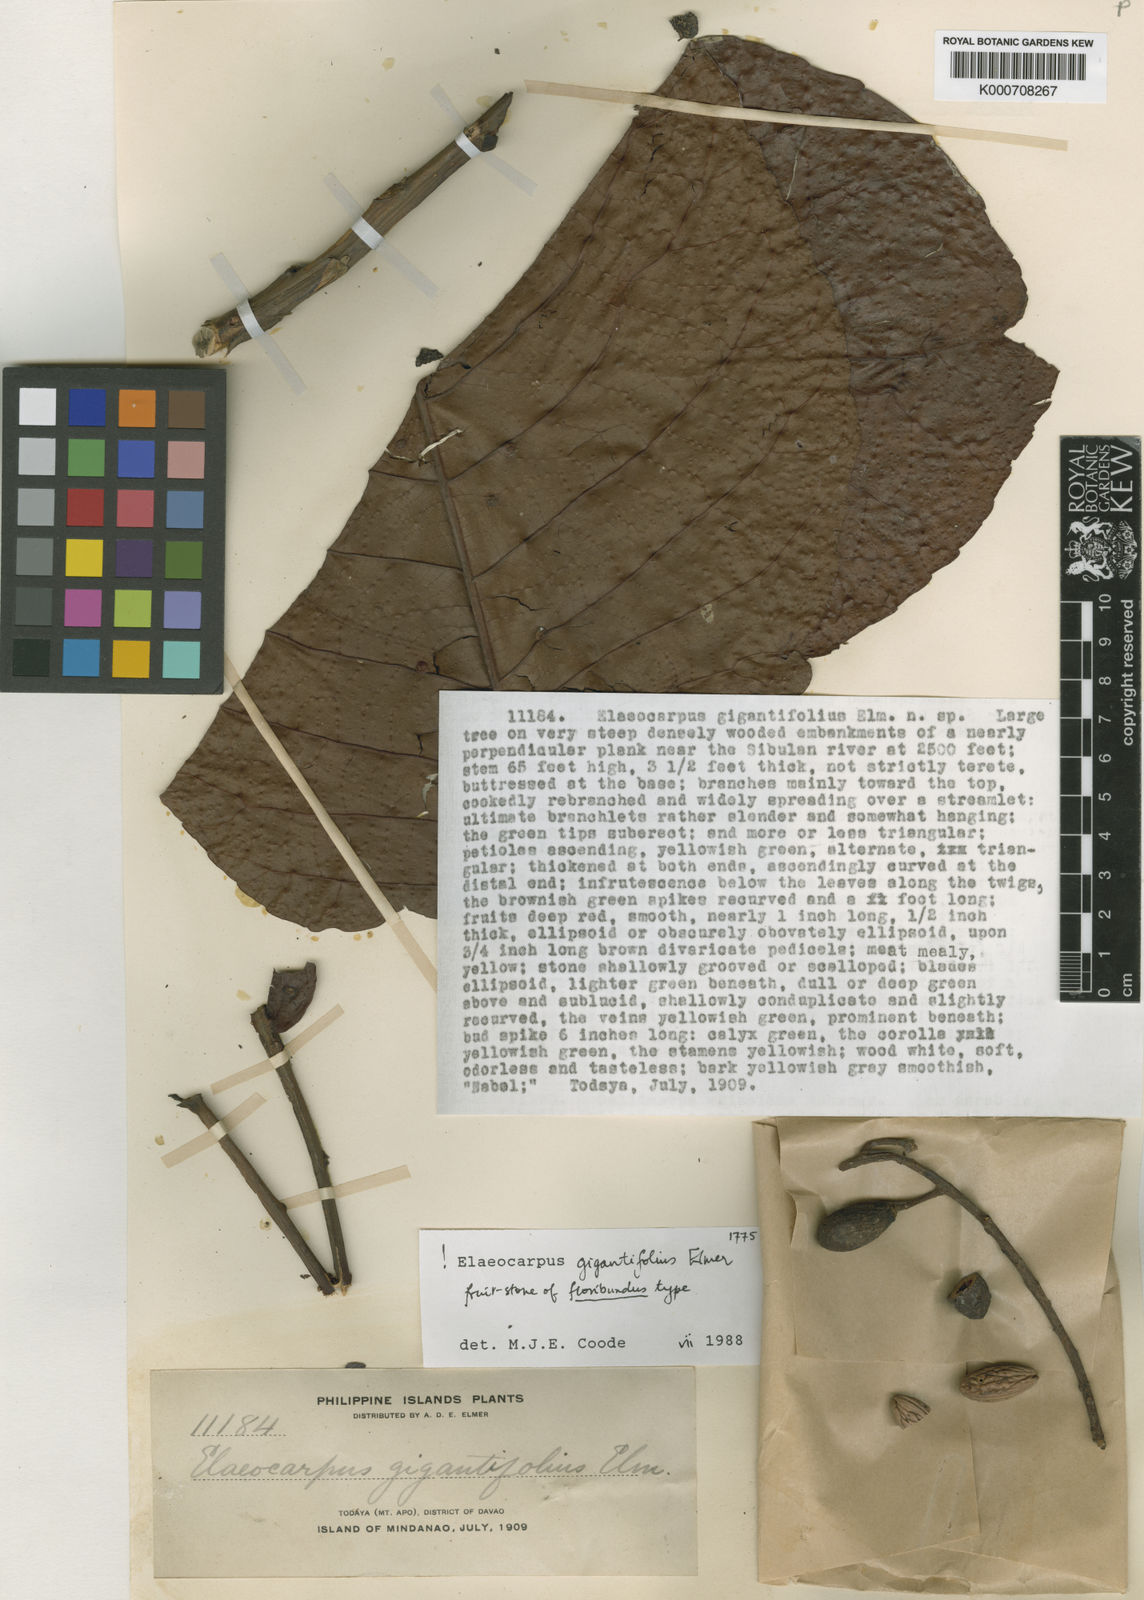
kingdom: Plantae
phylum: Tracheophyta
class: Magnoliopsida
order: Oxalidales
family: Elaeocarpaceae
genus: Elaeocarpus
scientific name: Elaeocarpus gigantifolius
